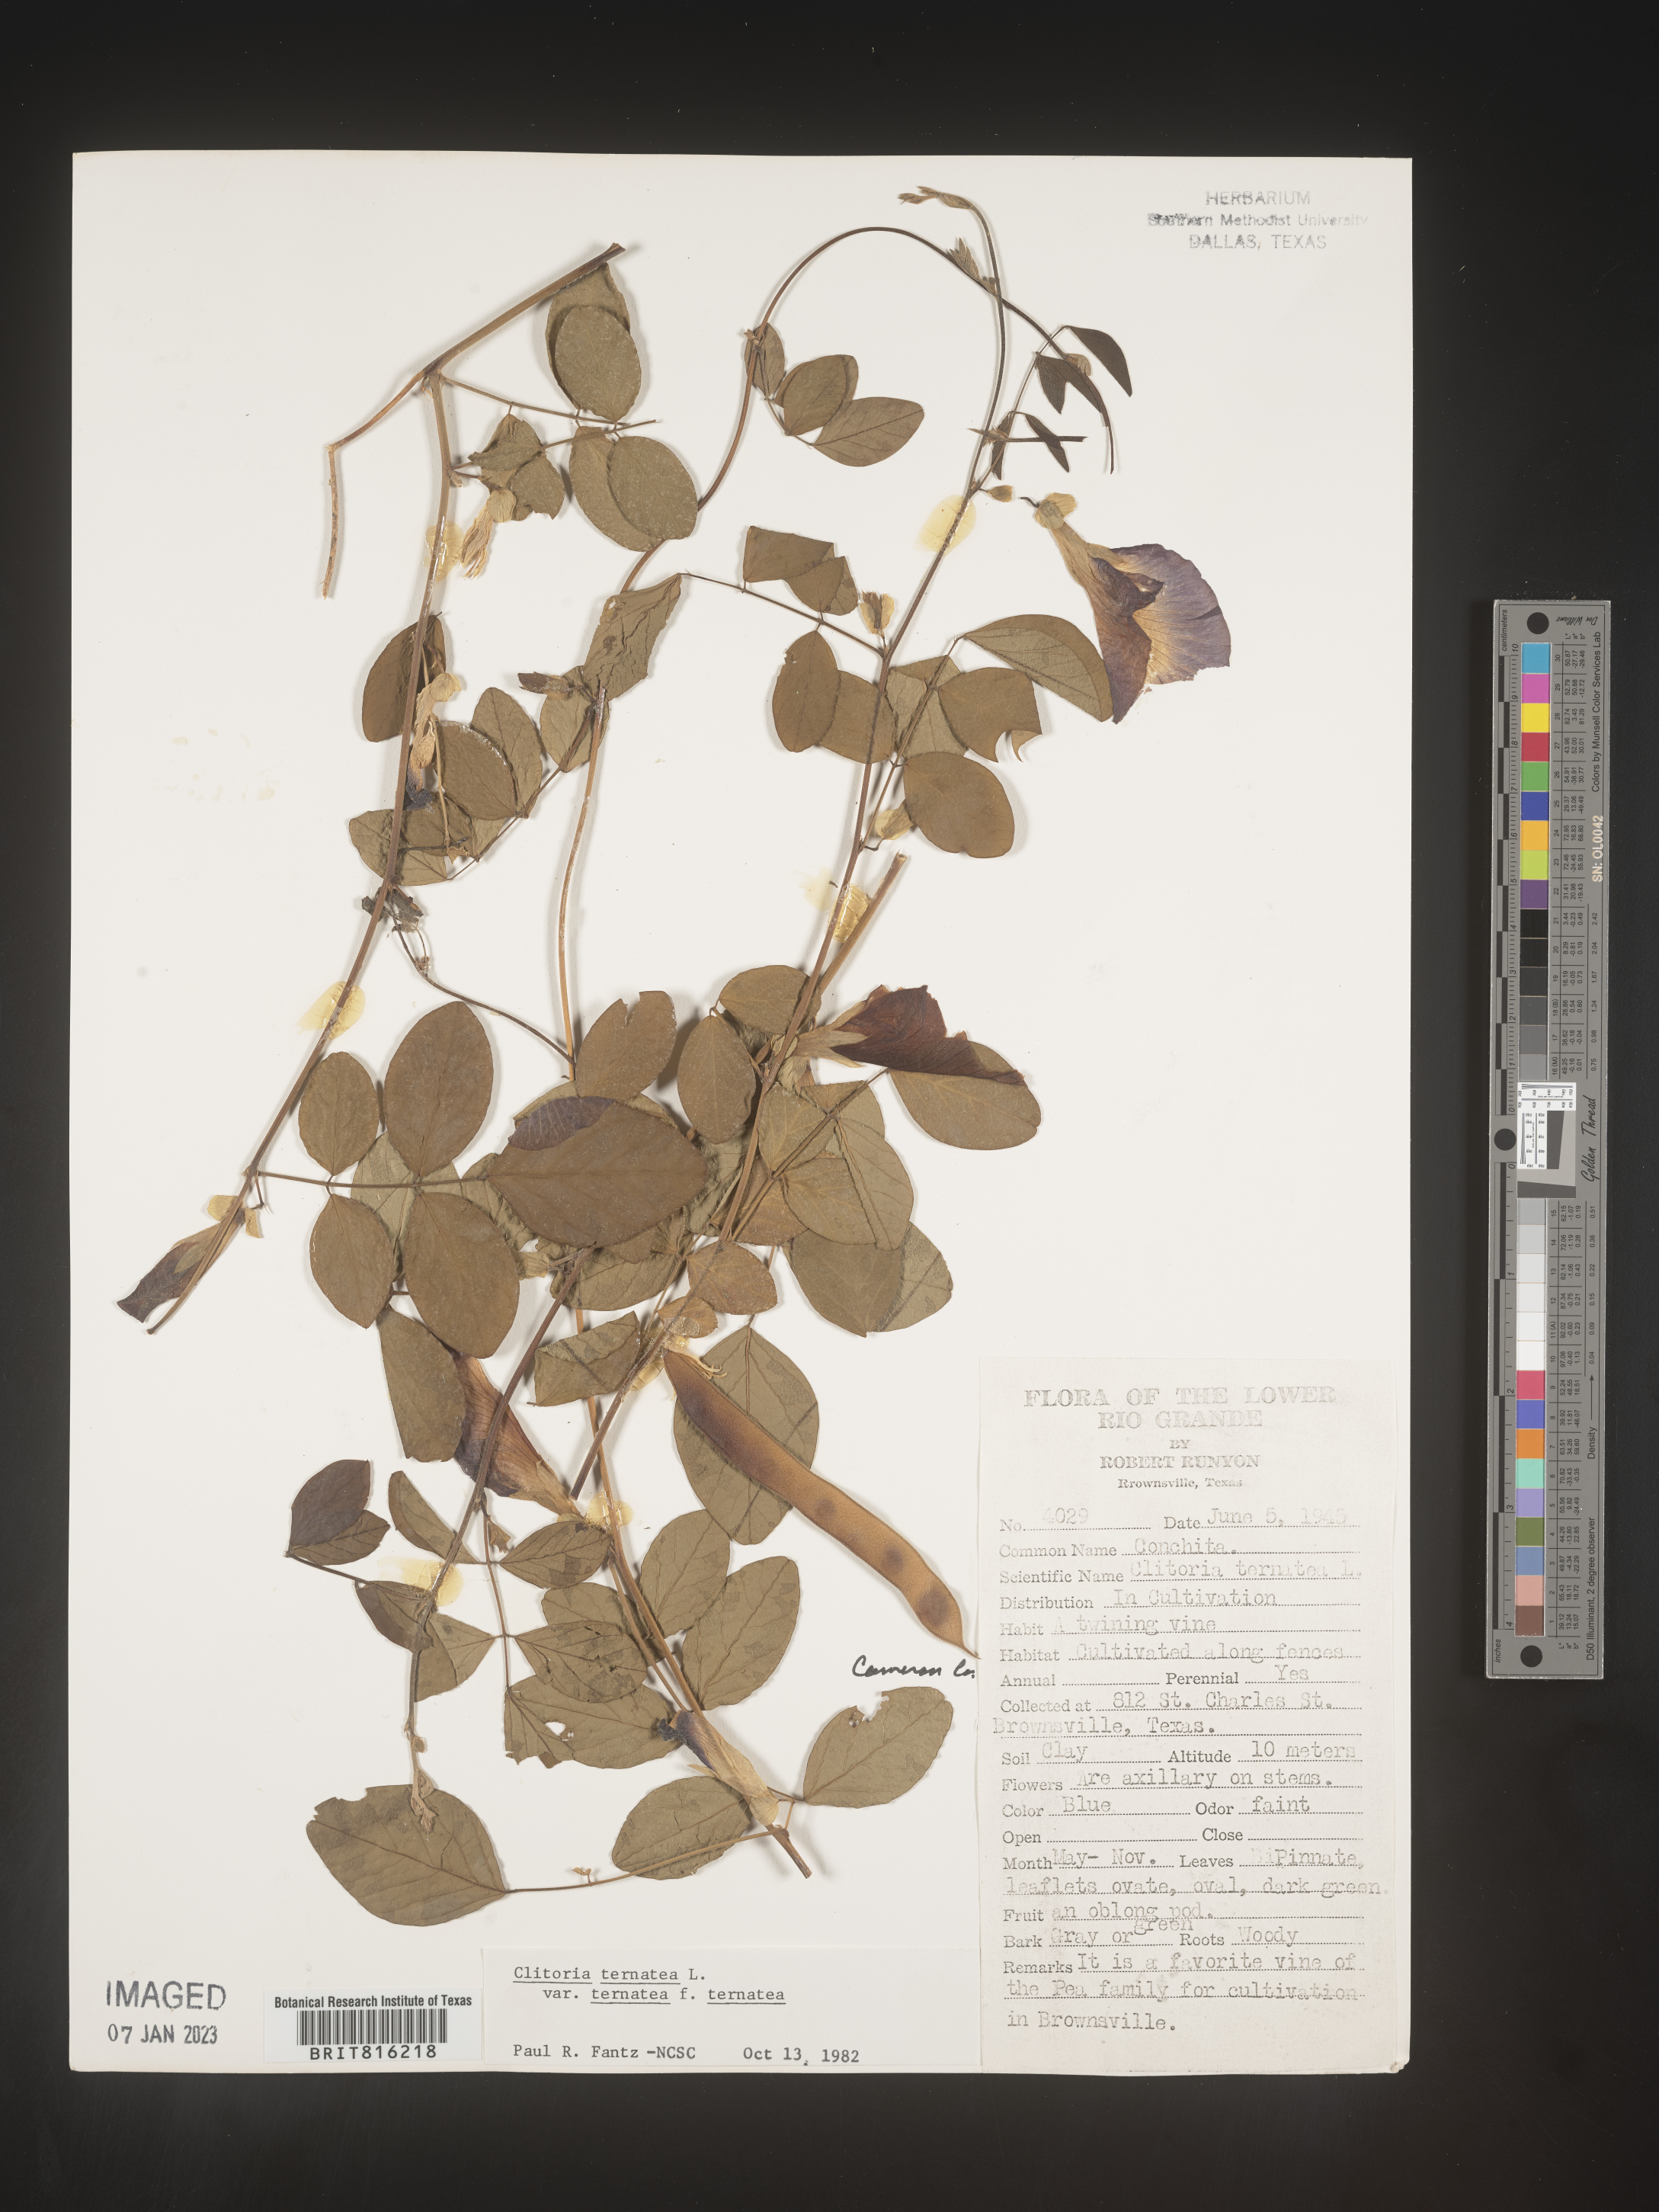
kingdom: Plantae
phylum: Tracheophyta
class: Magnoliopsida
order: Fabales
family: Fabaceae
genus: Clitoria
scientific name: Clitoria
